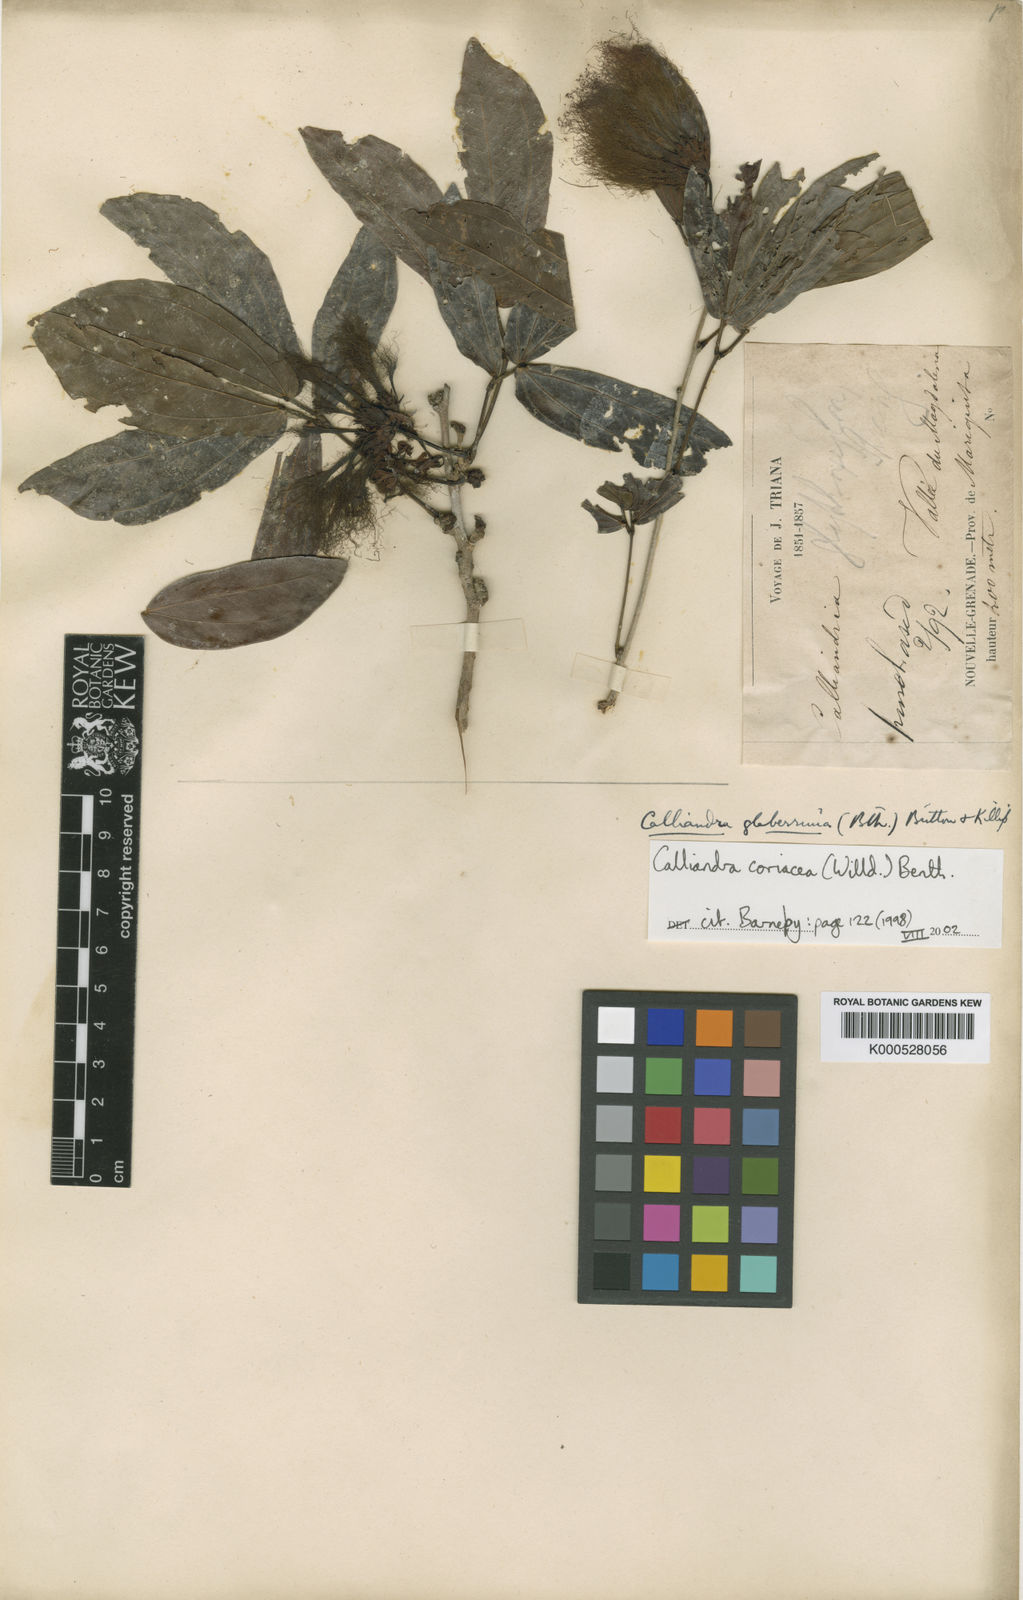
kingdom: Plantae
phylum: Tracheophyta
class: Magnoliopsida
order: Fabales
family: Fabaceae
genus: Calliandra
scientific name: Calliandra coriacea
